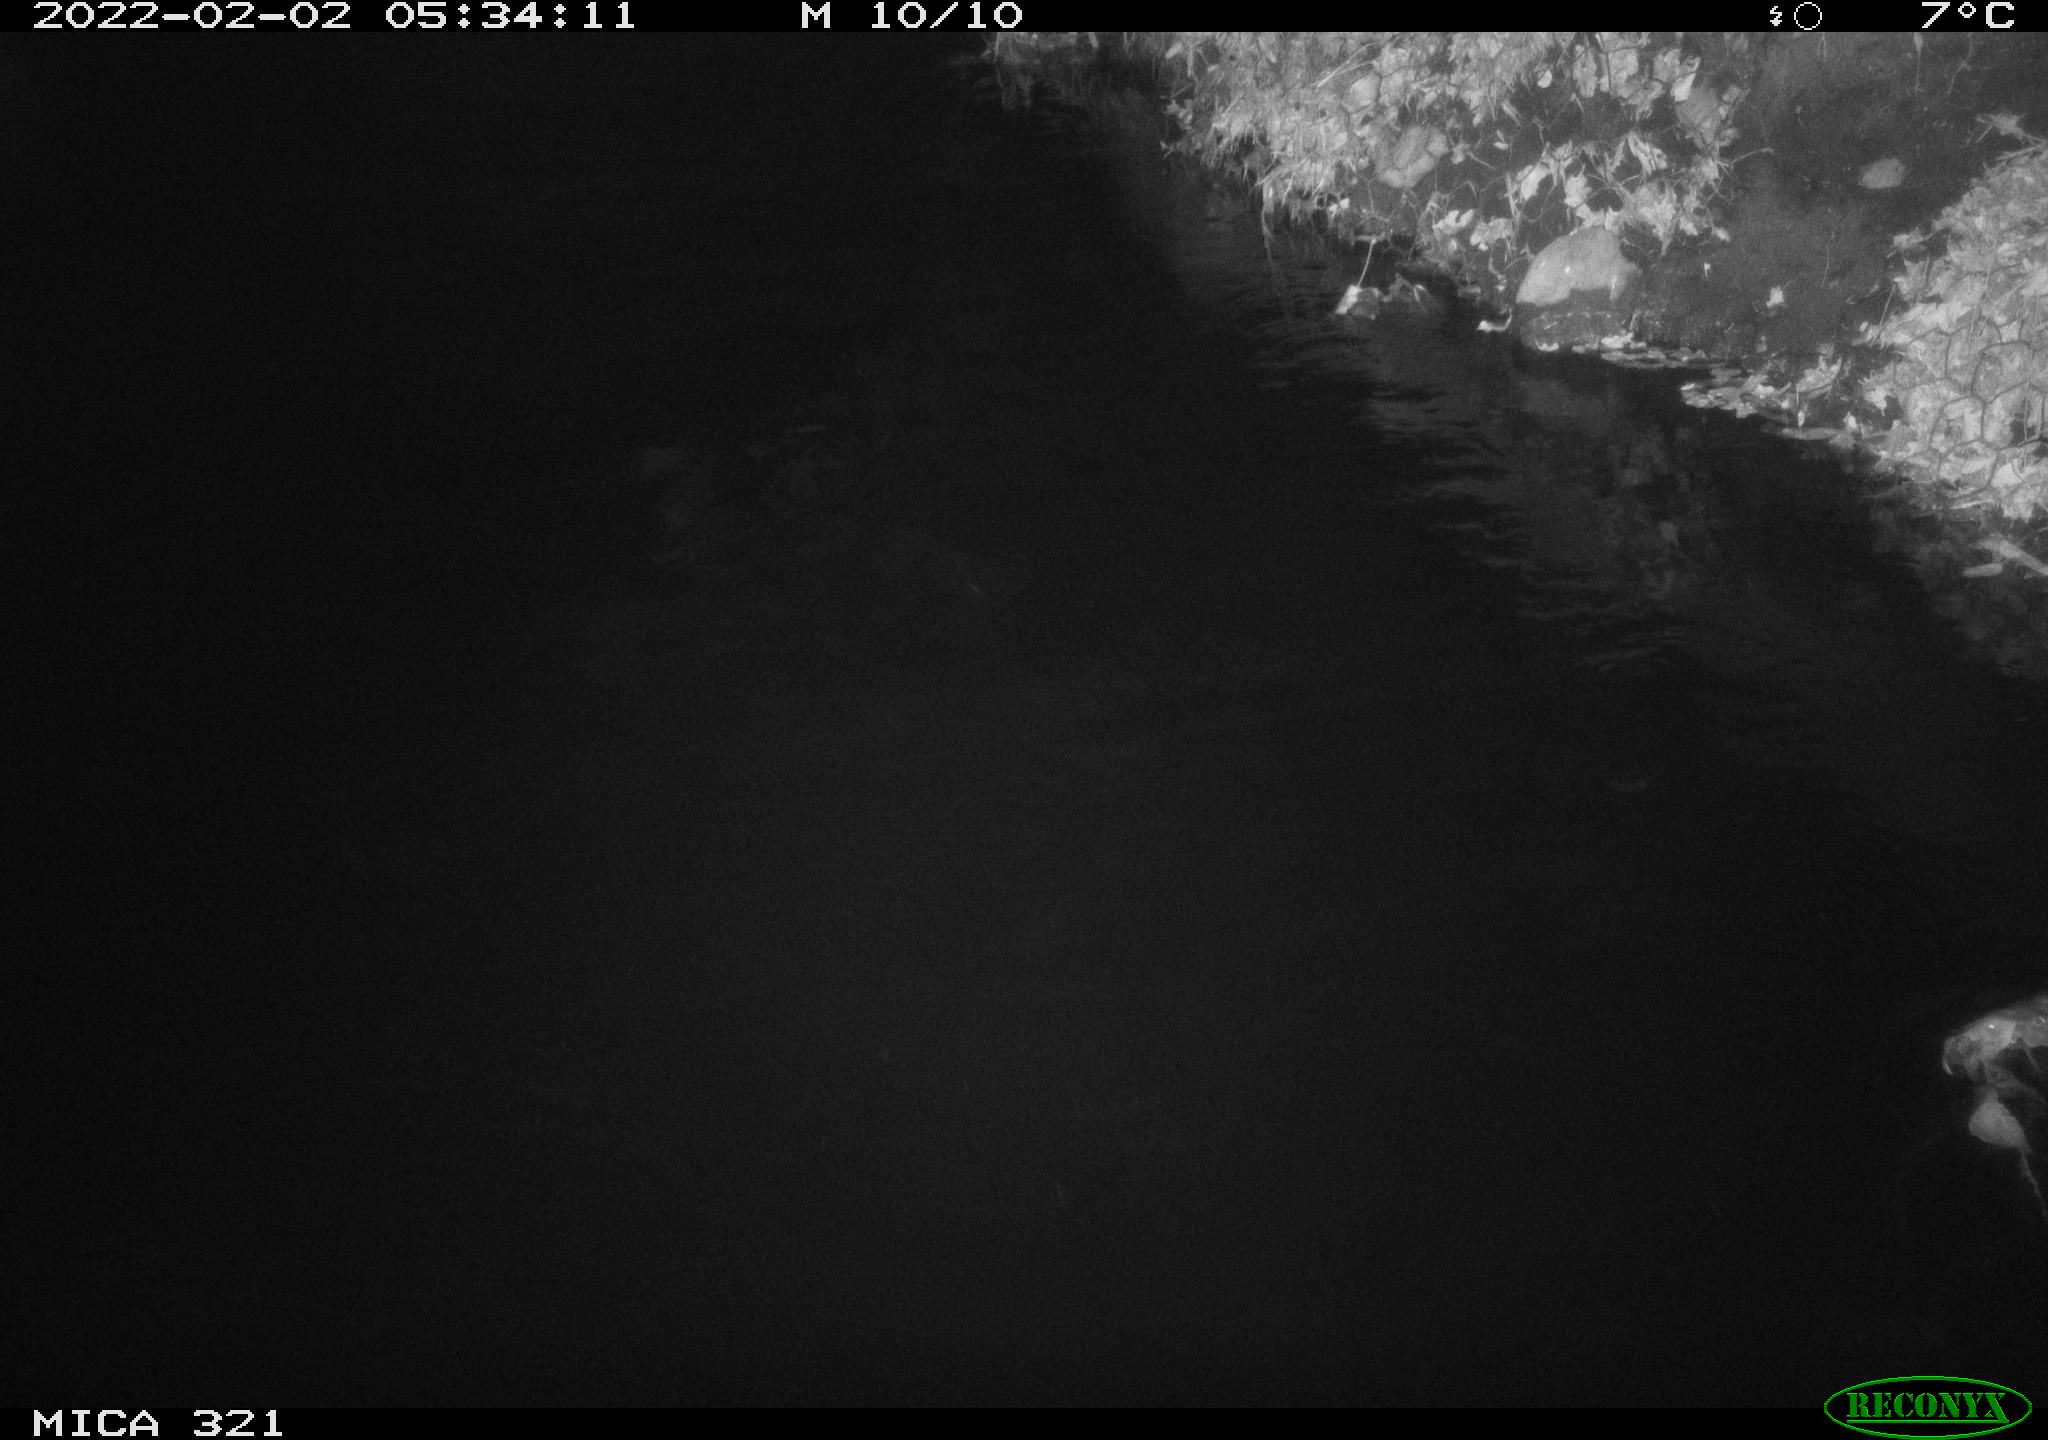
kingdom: Animalia
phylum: Chordata
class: Aves
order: Anseriformes
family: Anatidae
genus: Anas
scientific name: Anas
